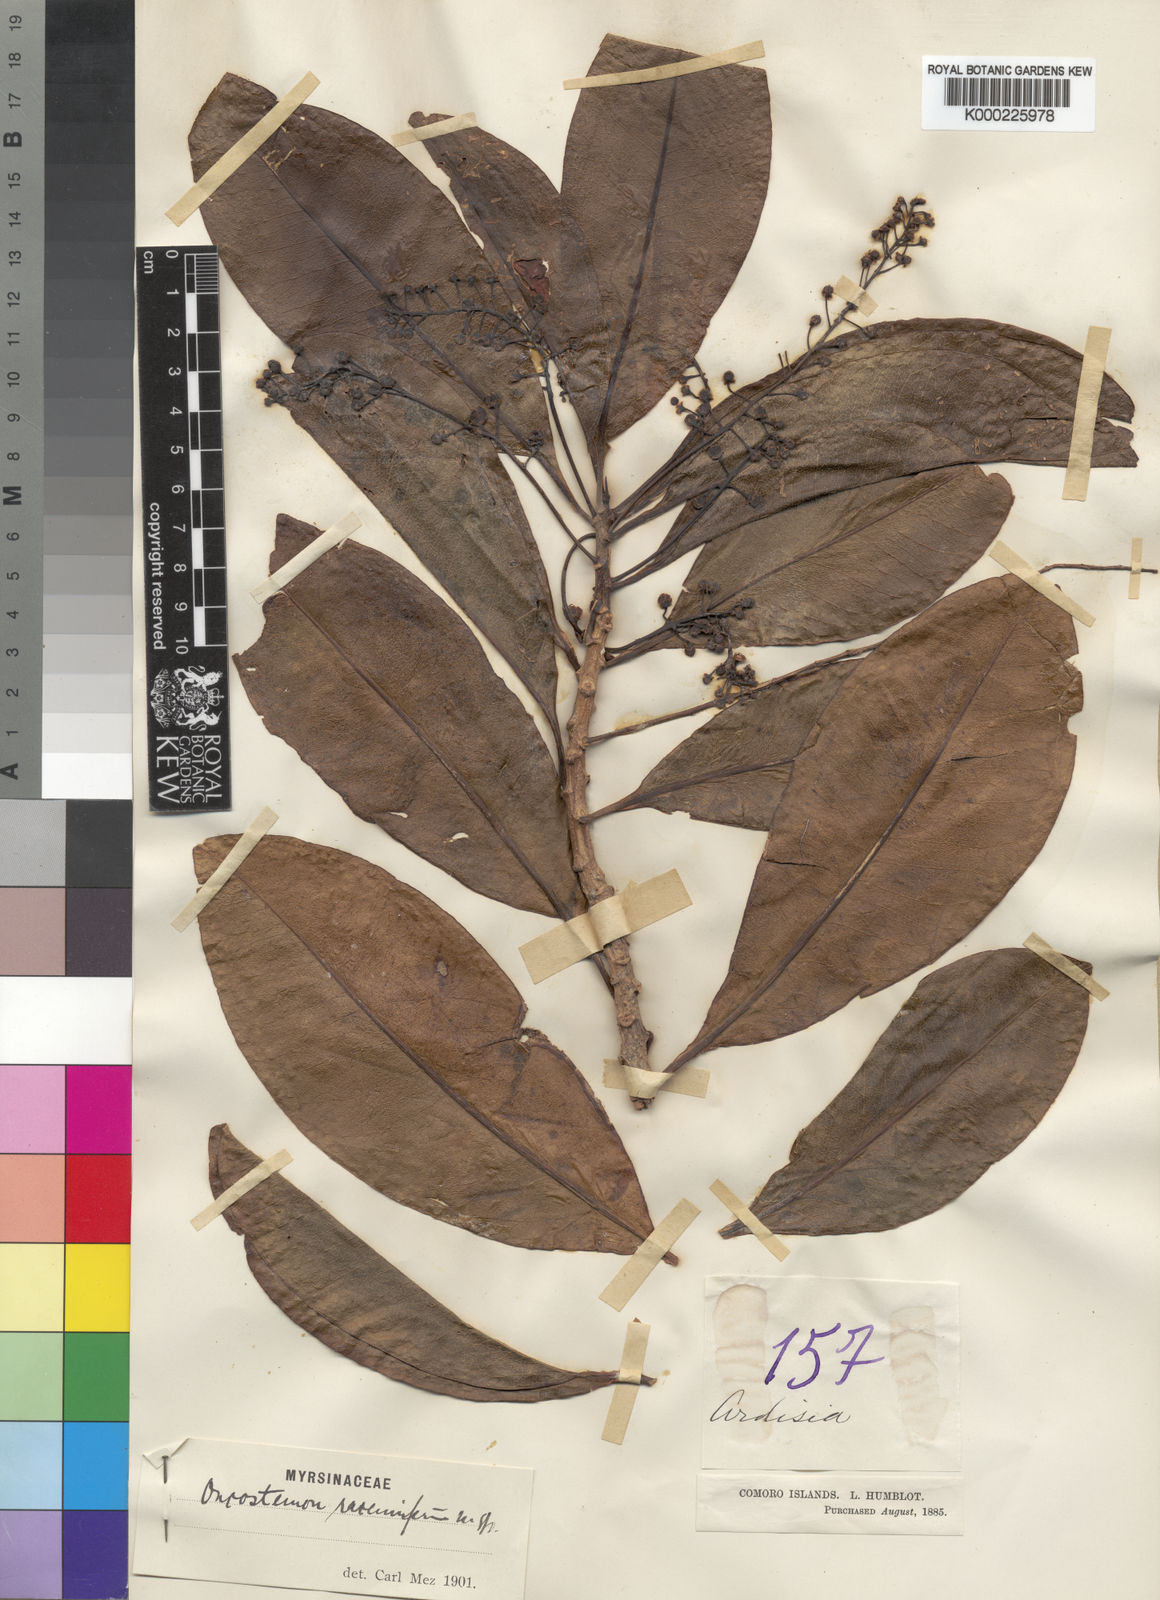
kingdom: Plantae
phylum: Tracheophyta
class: Magnoliopsida
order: Ericales
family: Primulaceae
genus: Oncostemum
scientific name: Oncostemum racemiferum
